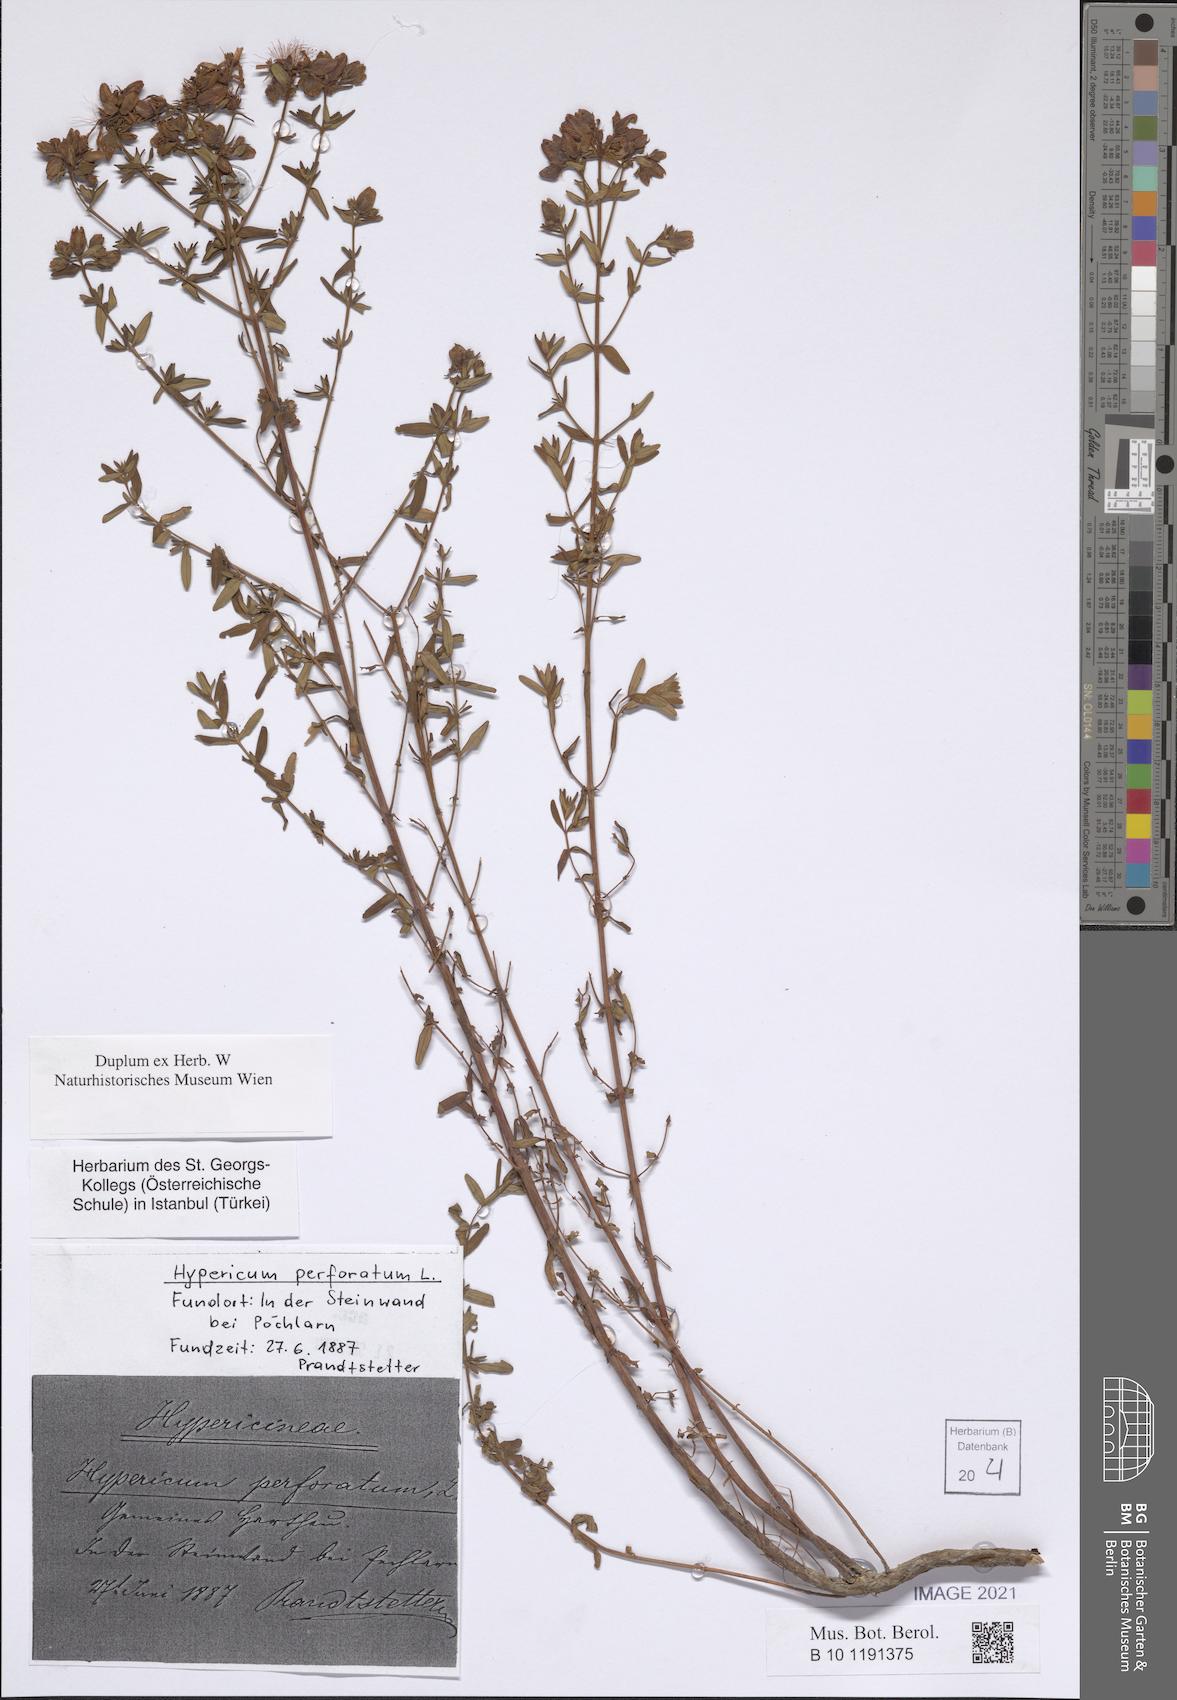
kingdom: Plantae
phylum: Tracheophyta
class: Magnoliopsida
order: Malpighiales
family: Hypericaceae
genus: Hypericum
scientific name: Hypericum perforatum
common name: Common st. johnswort
